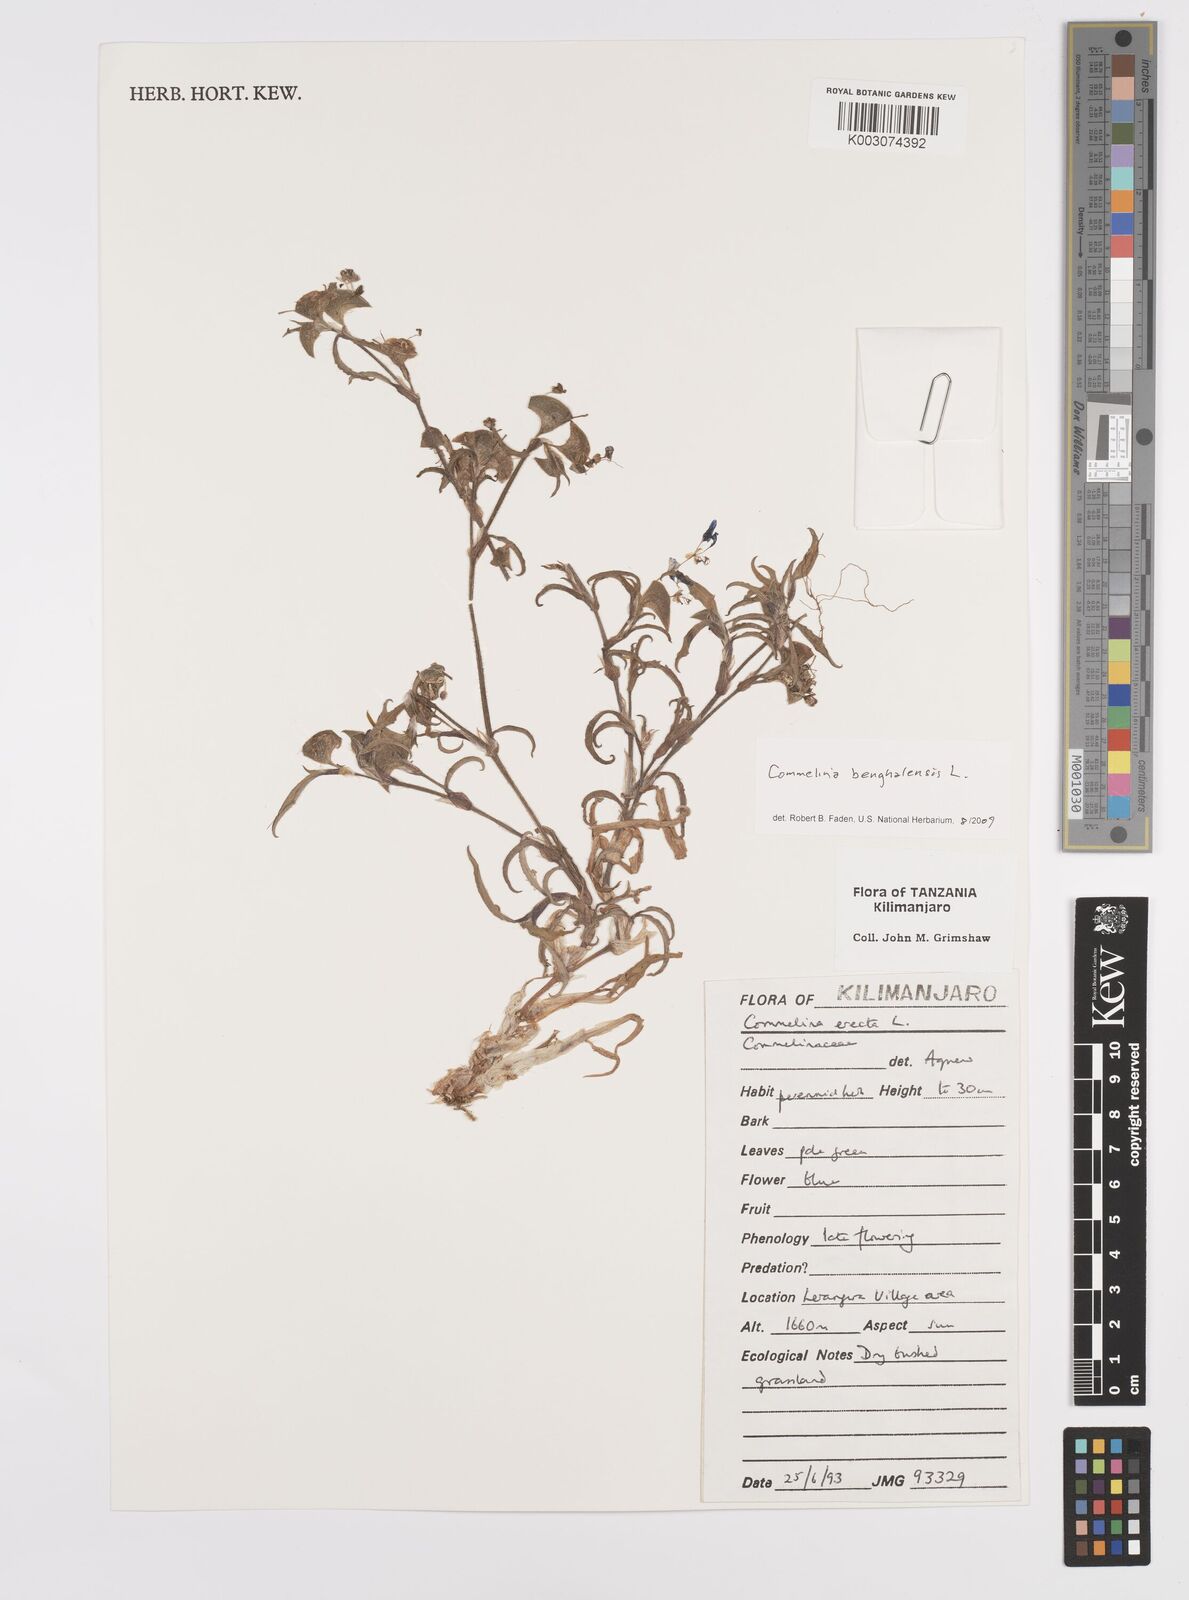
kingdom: Plantae
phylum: Tracheophyta
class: Liliopsida
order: Commelinales
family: Commelinaceae
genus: Commelina
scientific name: Commelina benghalensis
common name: Jio
